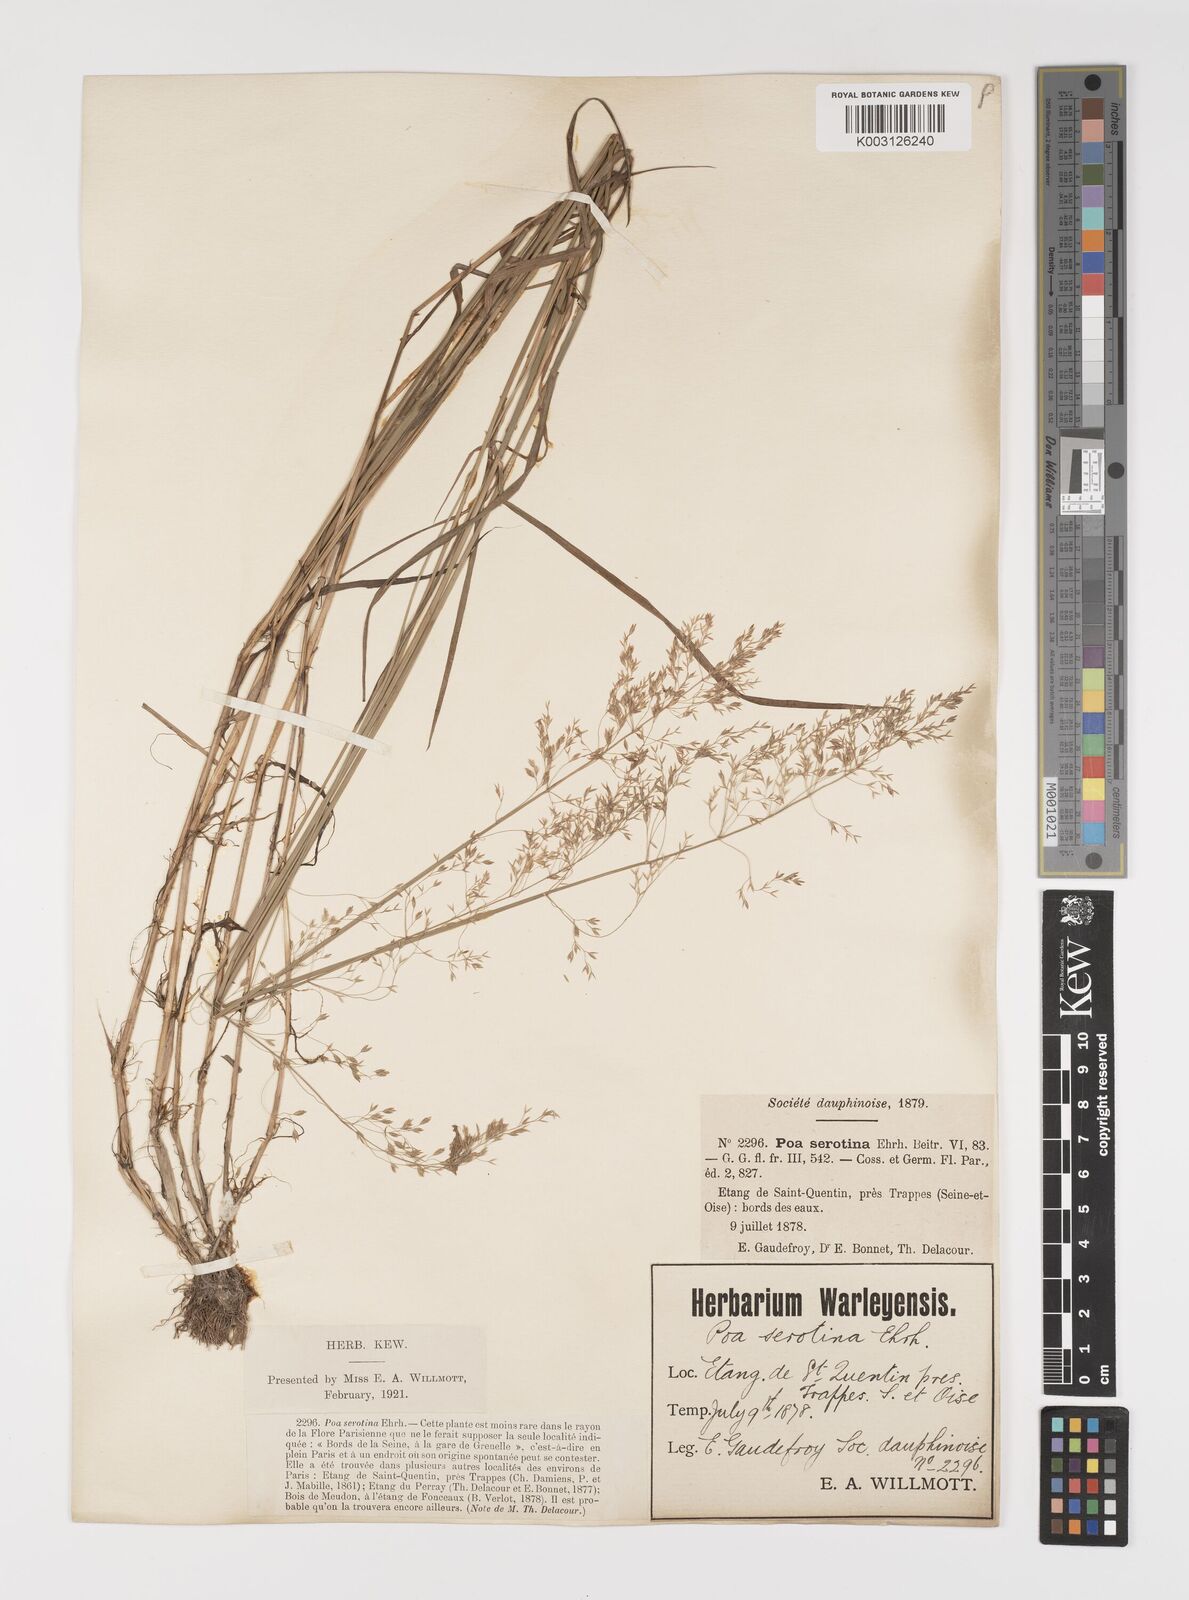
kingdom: Plantae
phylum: Tracheophyta
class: Liliopsida
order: Poales
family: Poaceae
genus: Poa
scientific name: Poa palustris
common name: Swamp meadow-grass
